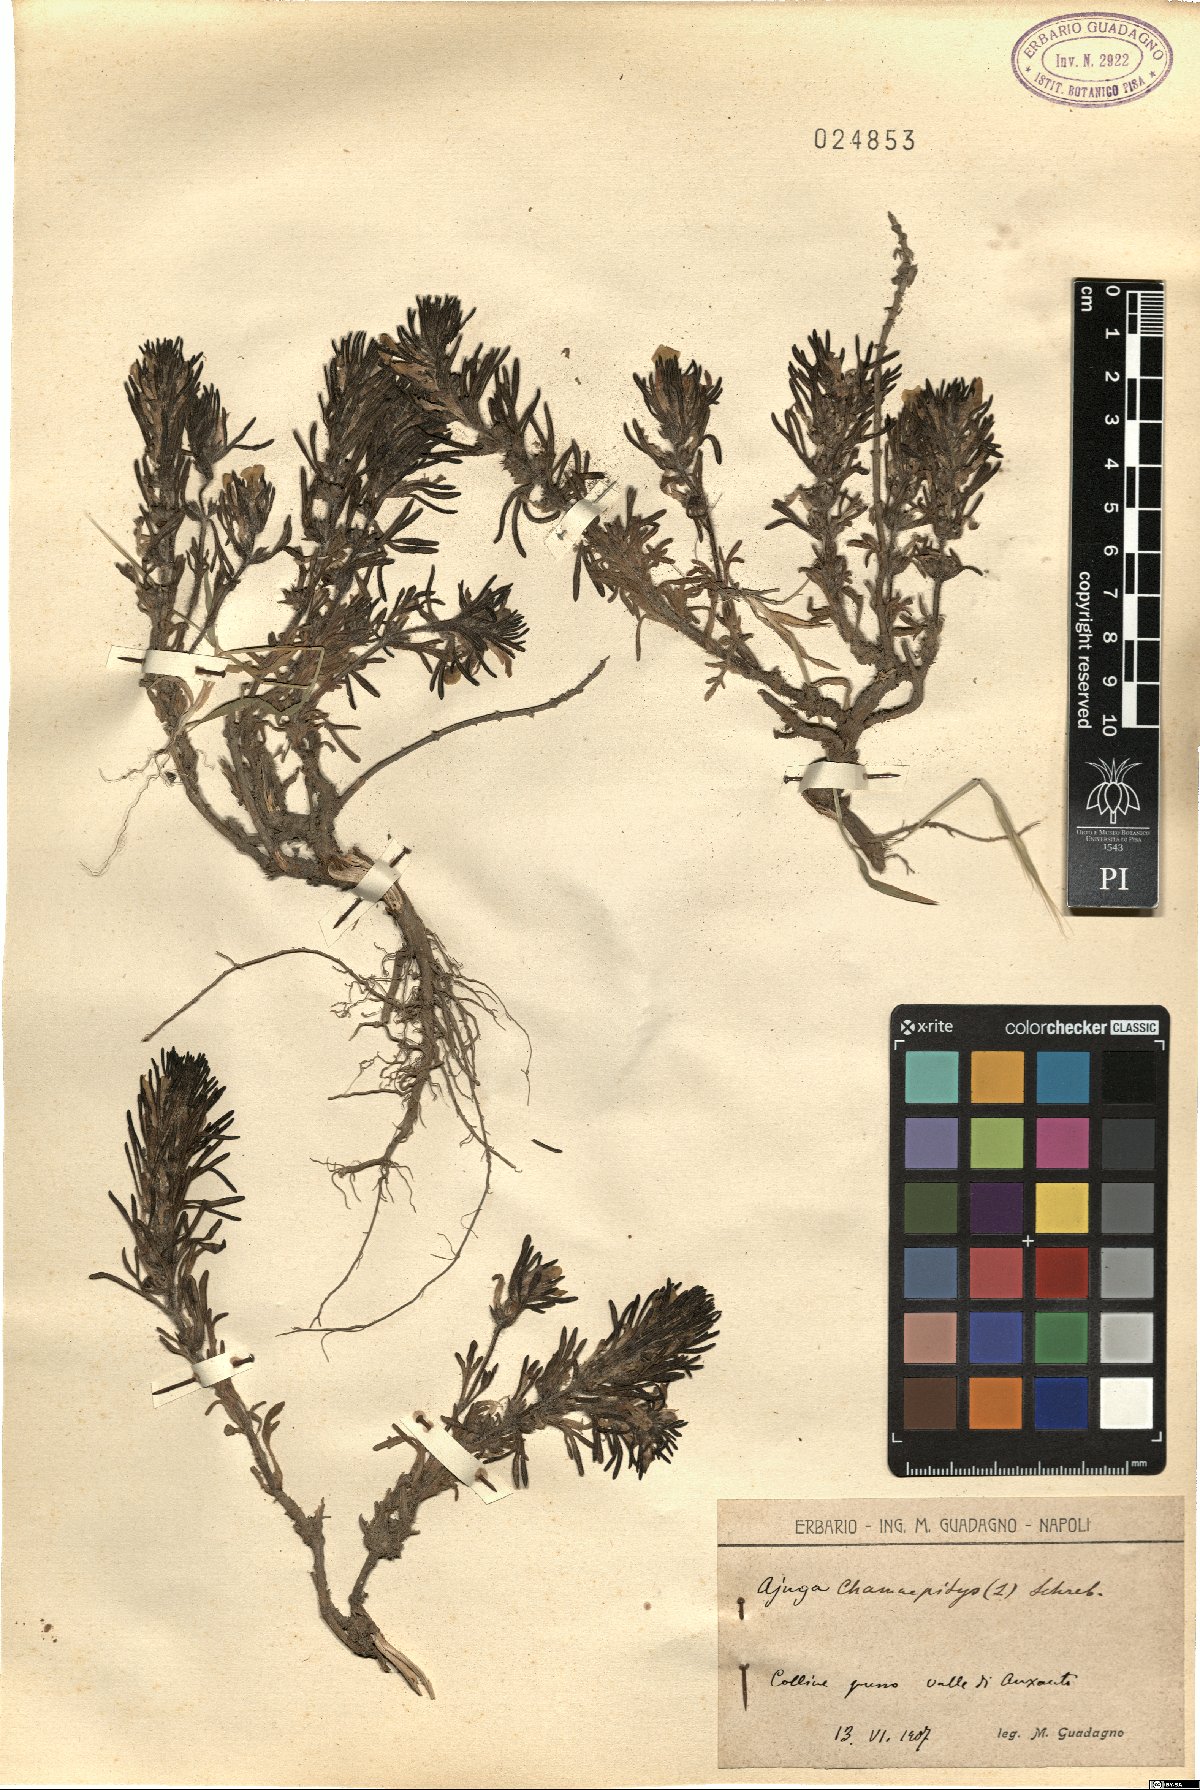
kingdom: Plantae
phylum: Tracheophyta
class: Magnoliopsida
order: Lamiales
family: Lamiaceae
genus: Ajuga
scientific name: Ajuga chamaepitys
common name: Ground-pine
